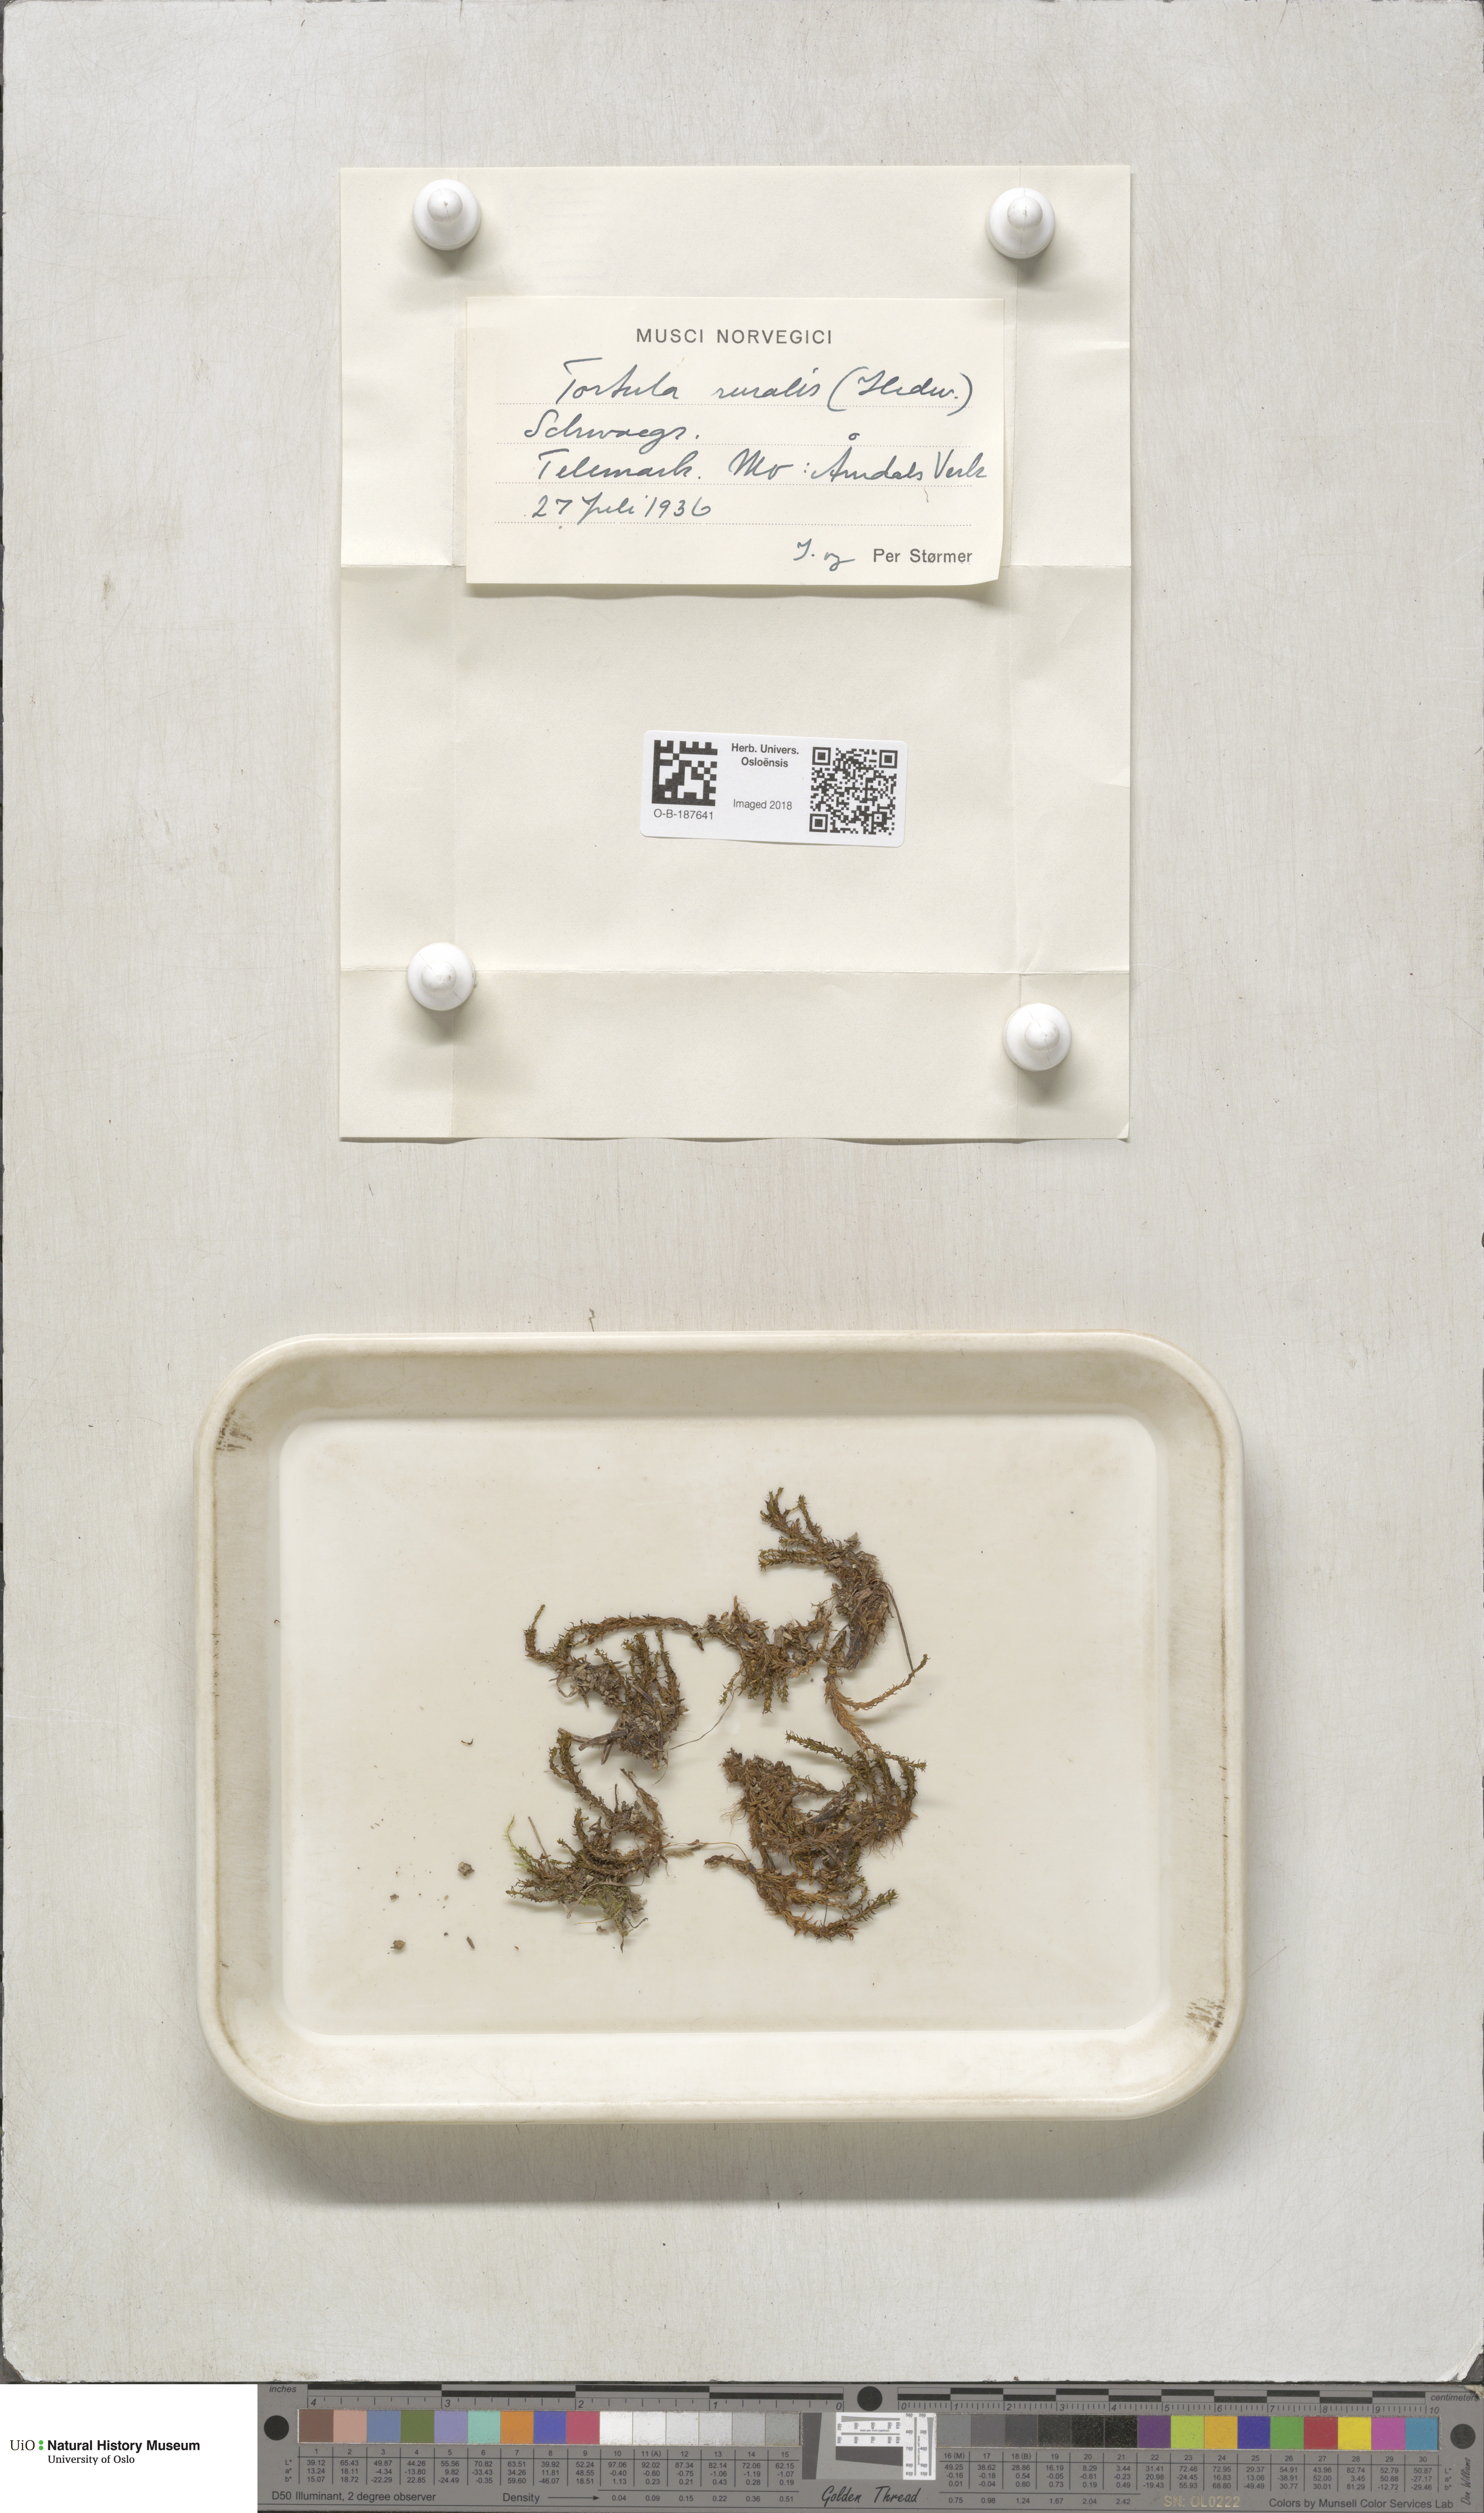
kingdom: Plantae
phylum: Bryophyta
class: Bryopsida
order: Pottiales
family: Pottiaceae
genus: Syntrichia
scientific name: Syntrichia ruralis
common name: Sidewalk screw moss
